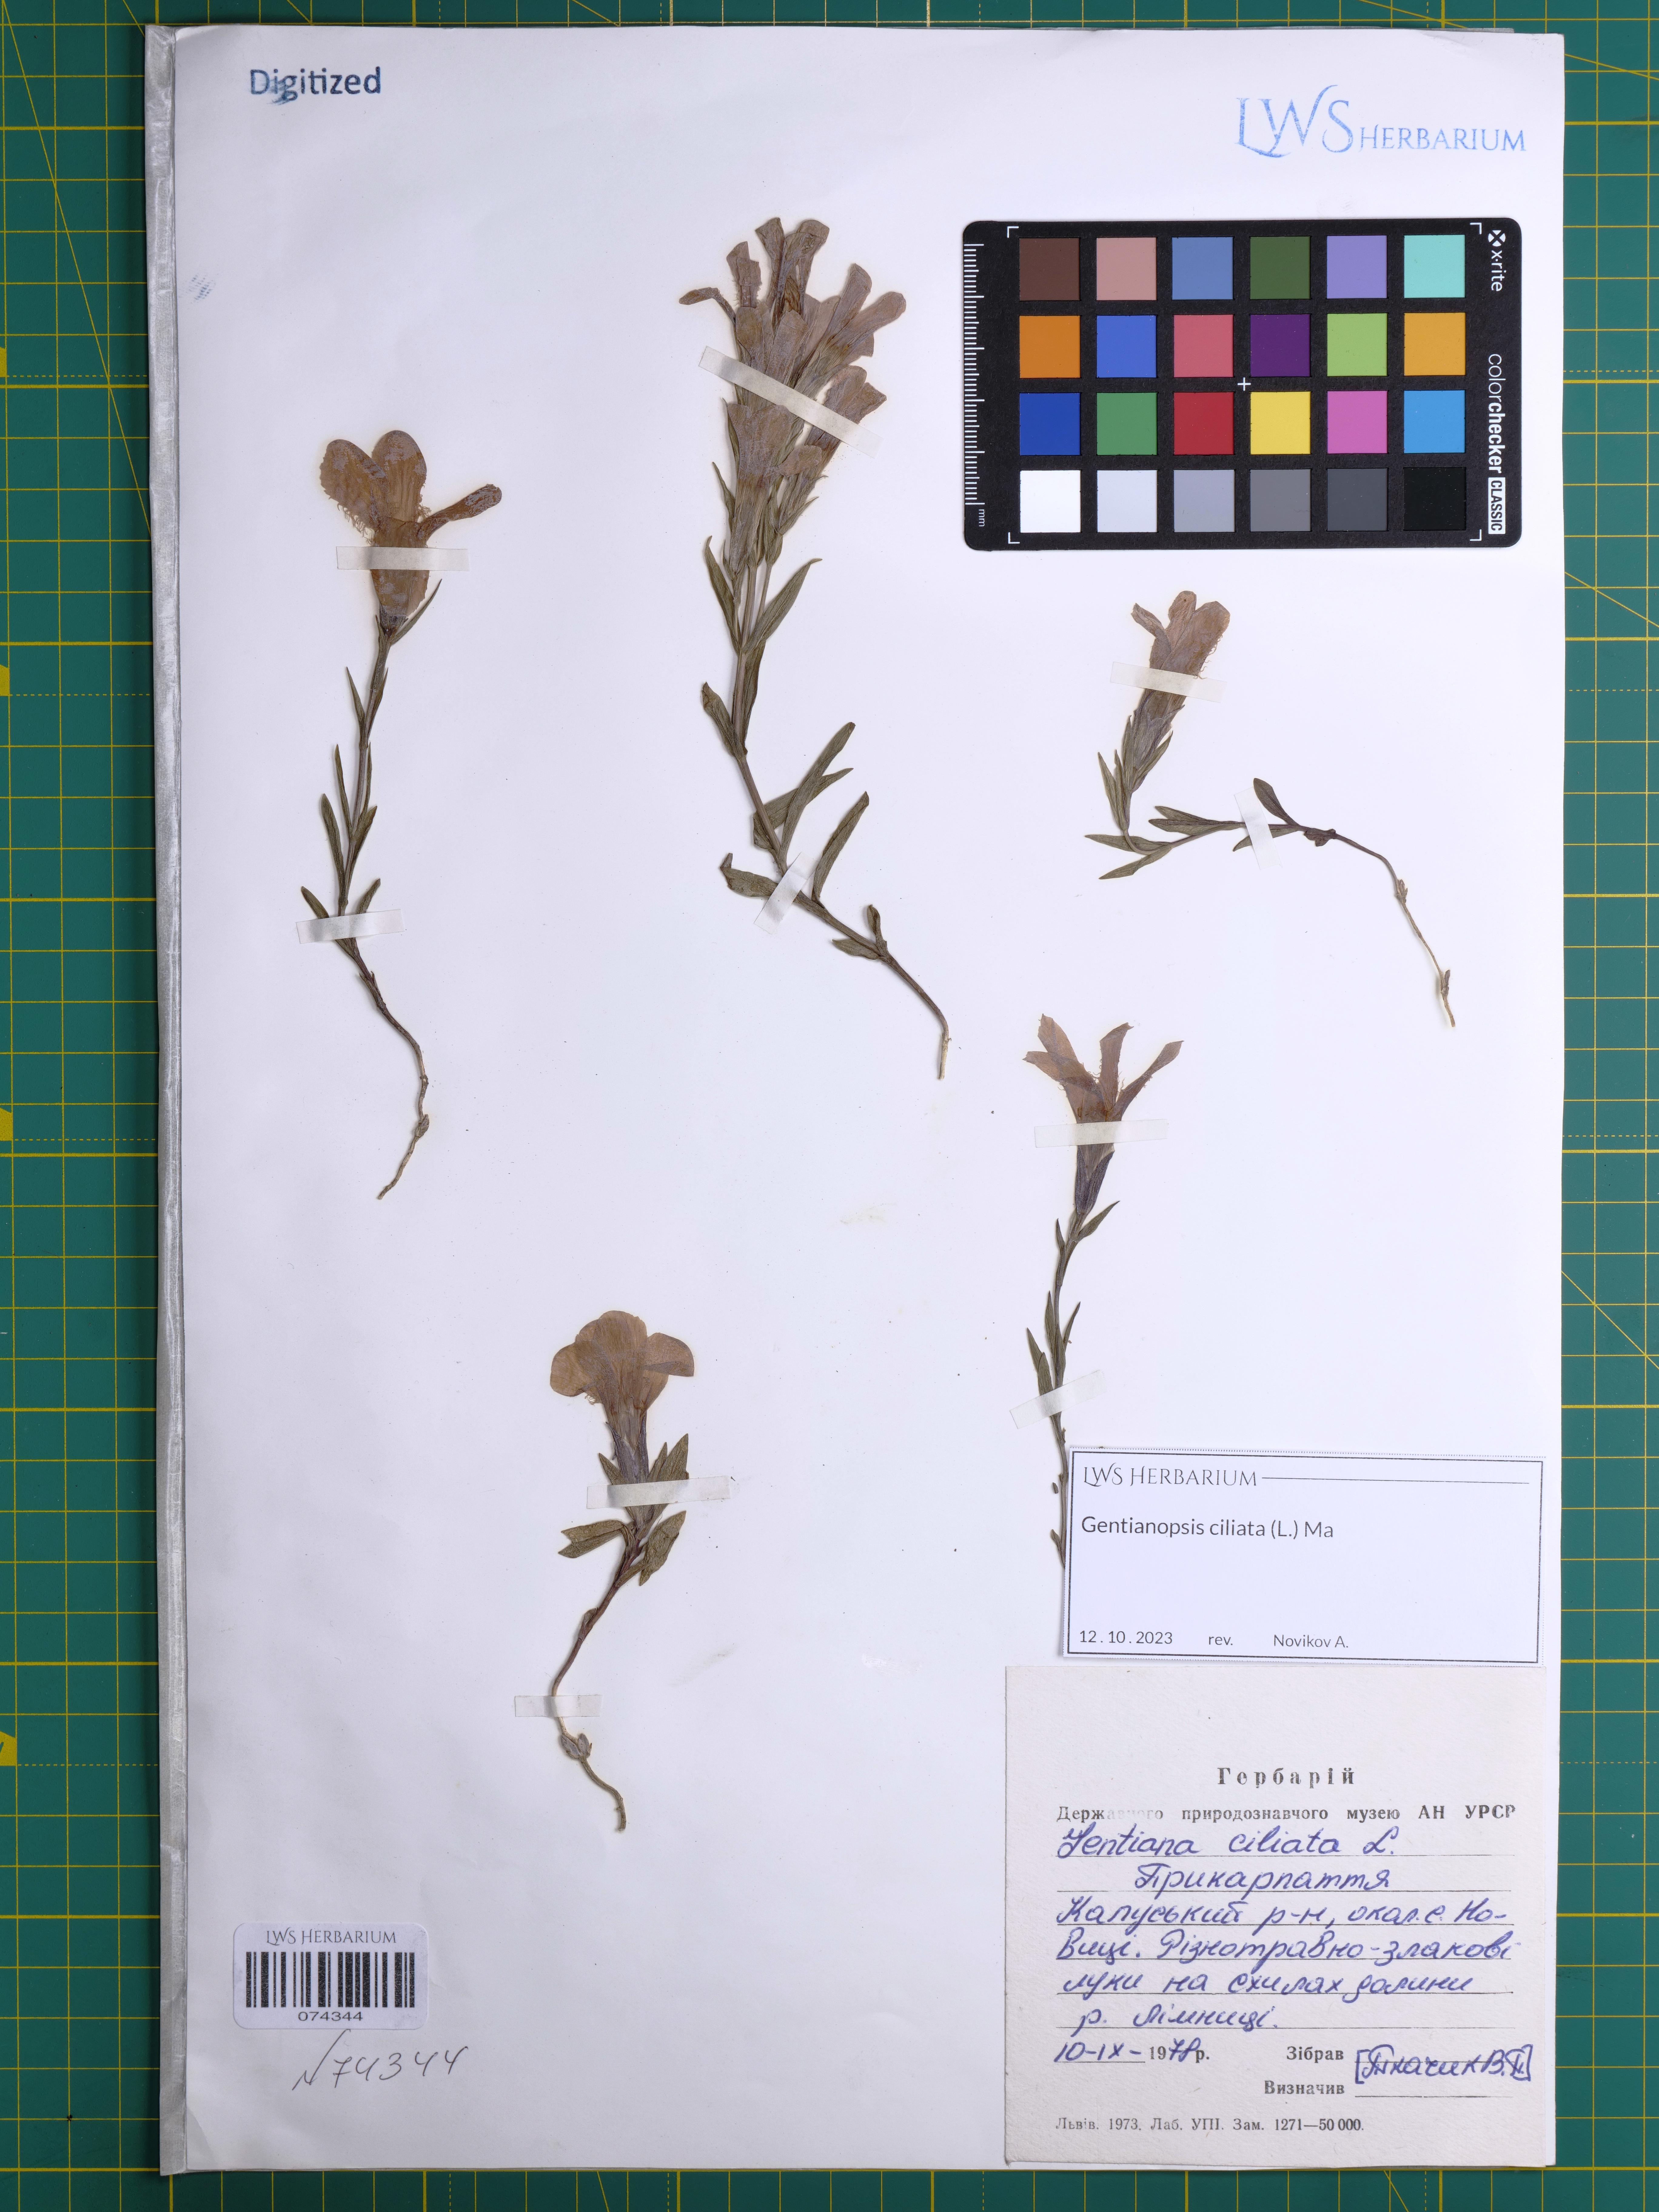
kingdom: Plantae
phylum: Tracheophyta
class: Magnoliopsida
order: Gentianales
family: Gentianaceae
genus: Gentianopsis
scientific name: Gentianopsis ciliata
